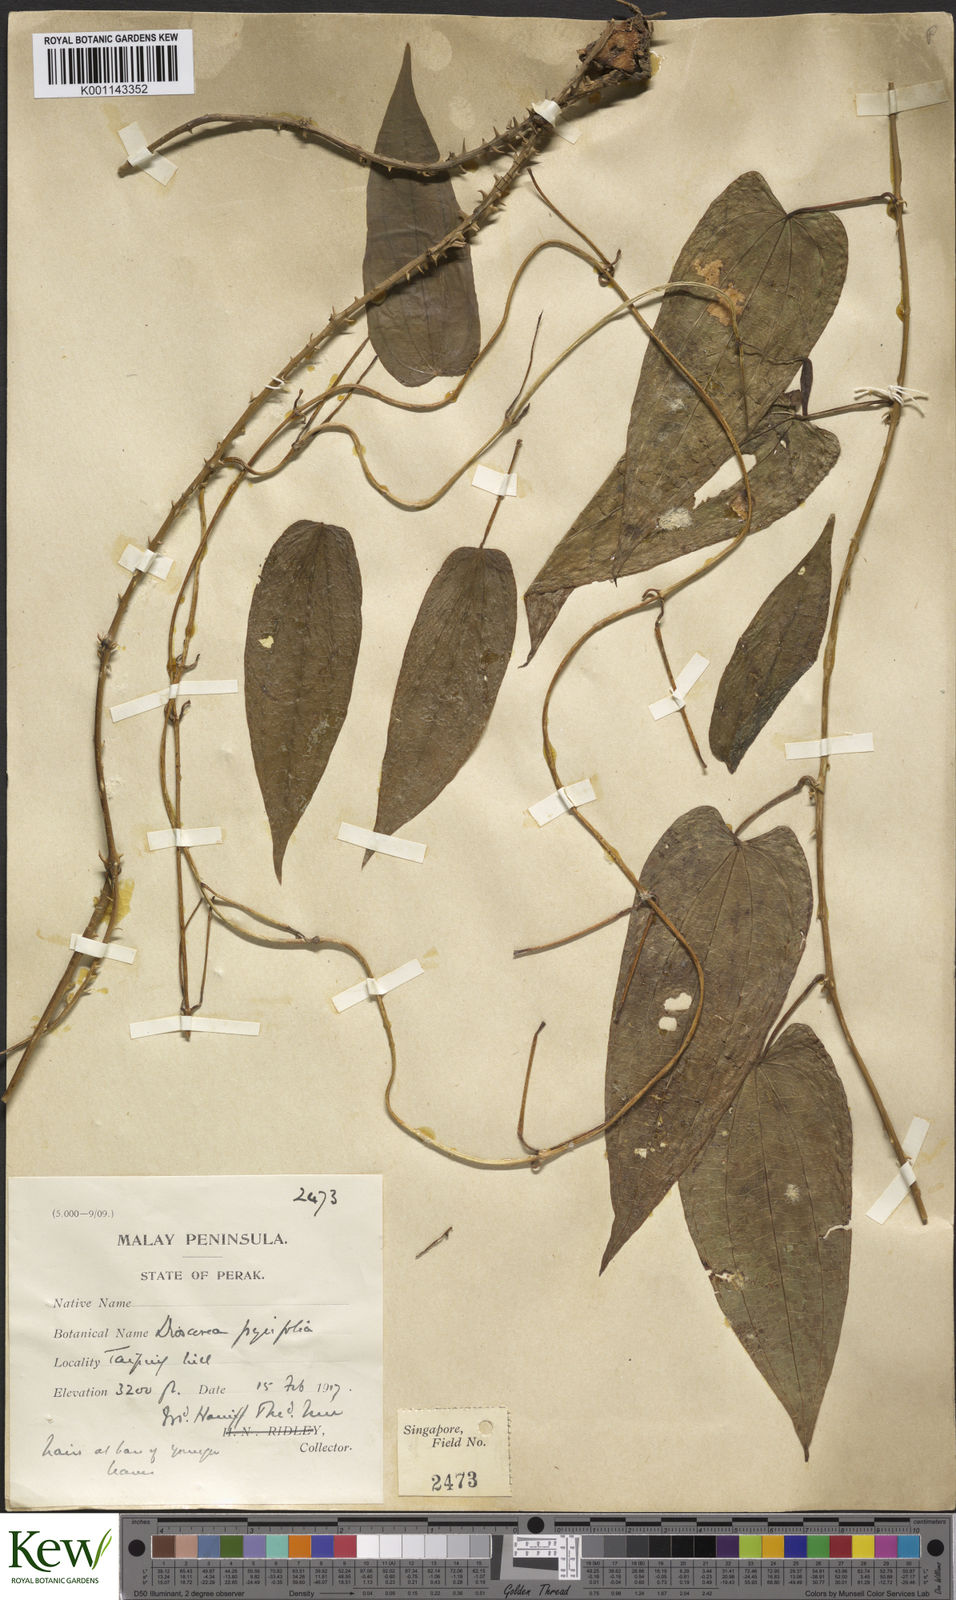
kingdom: Plantae
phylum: Tracheophyta
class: Liliopsida
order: Dioscoreales
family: Dioscoreaceae
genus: Dioscorea
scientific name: Dioscorea pyrifolia
